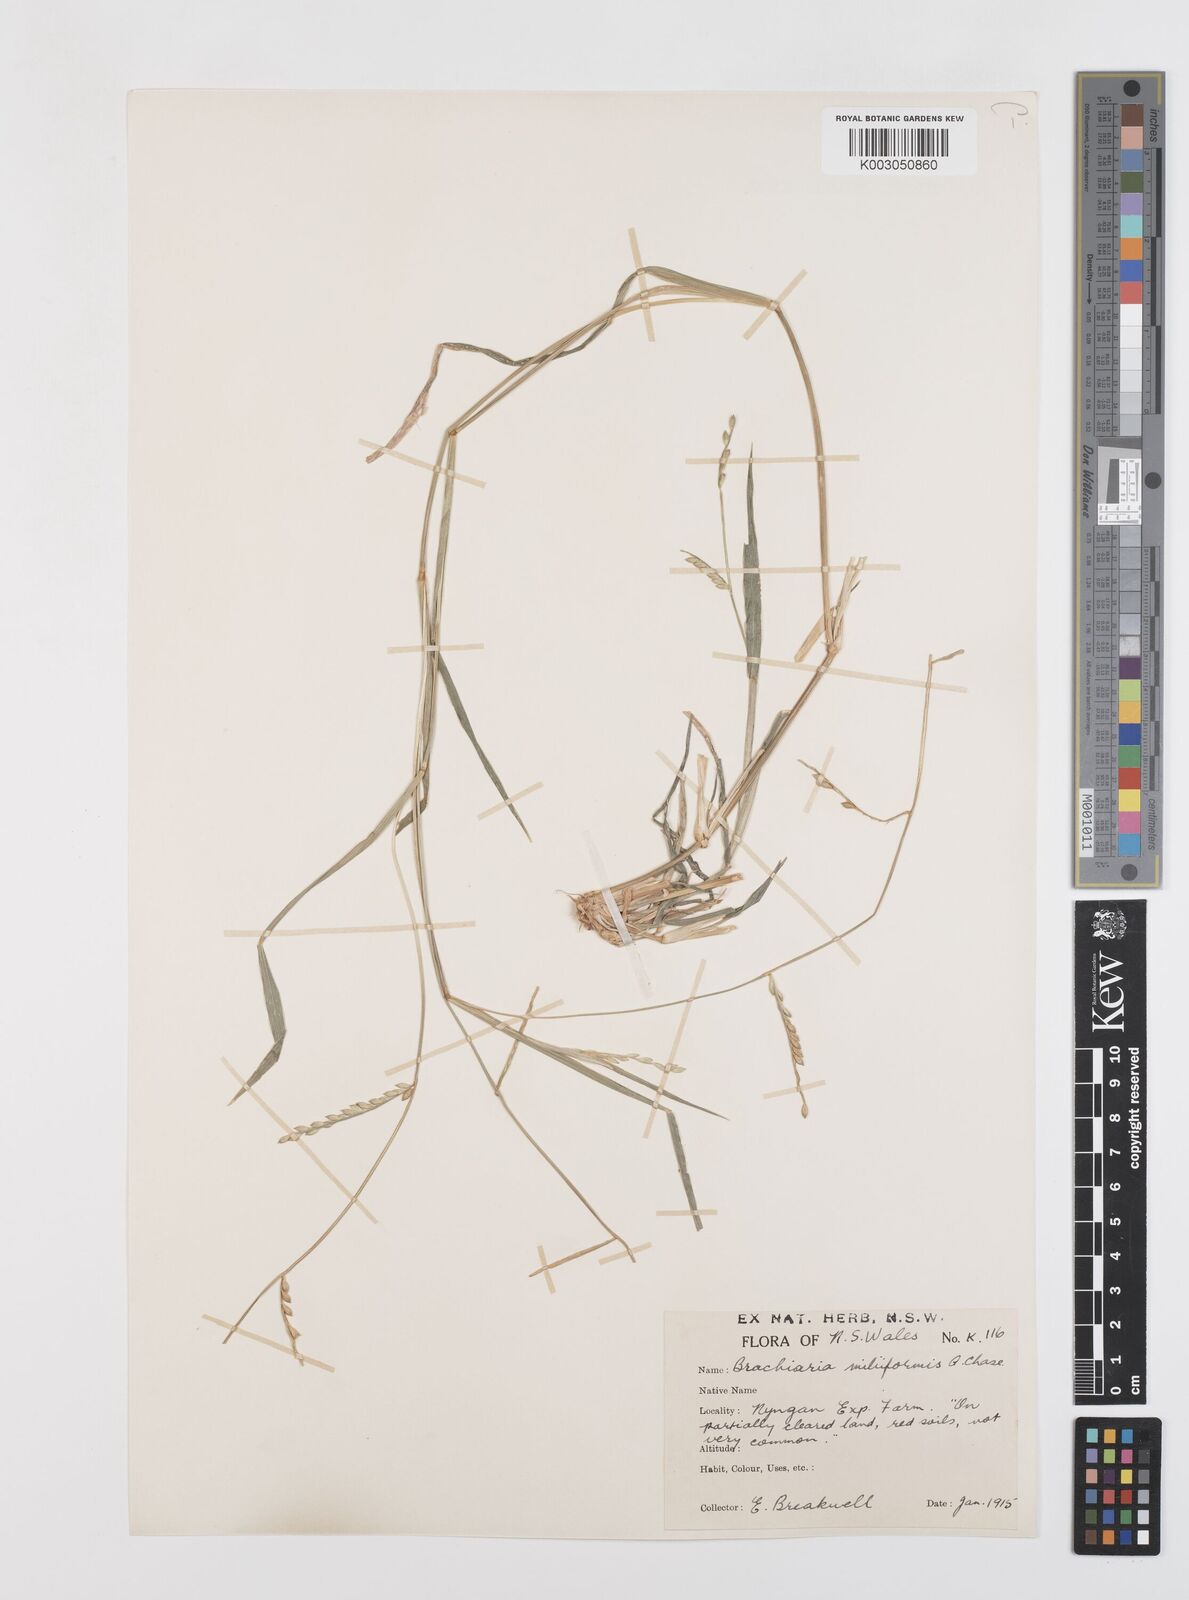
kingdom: Plantae
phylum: Tracheophyta
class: Liliopsida
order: Poales
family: Poaceae
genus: Urochloa
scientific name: Urochloa subquadripara
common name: Armgrass millet
